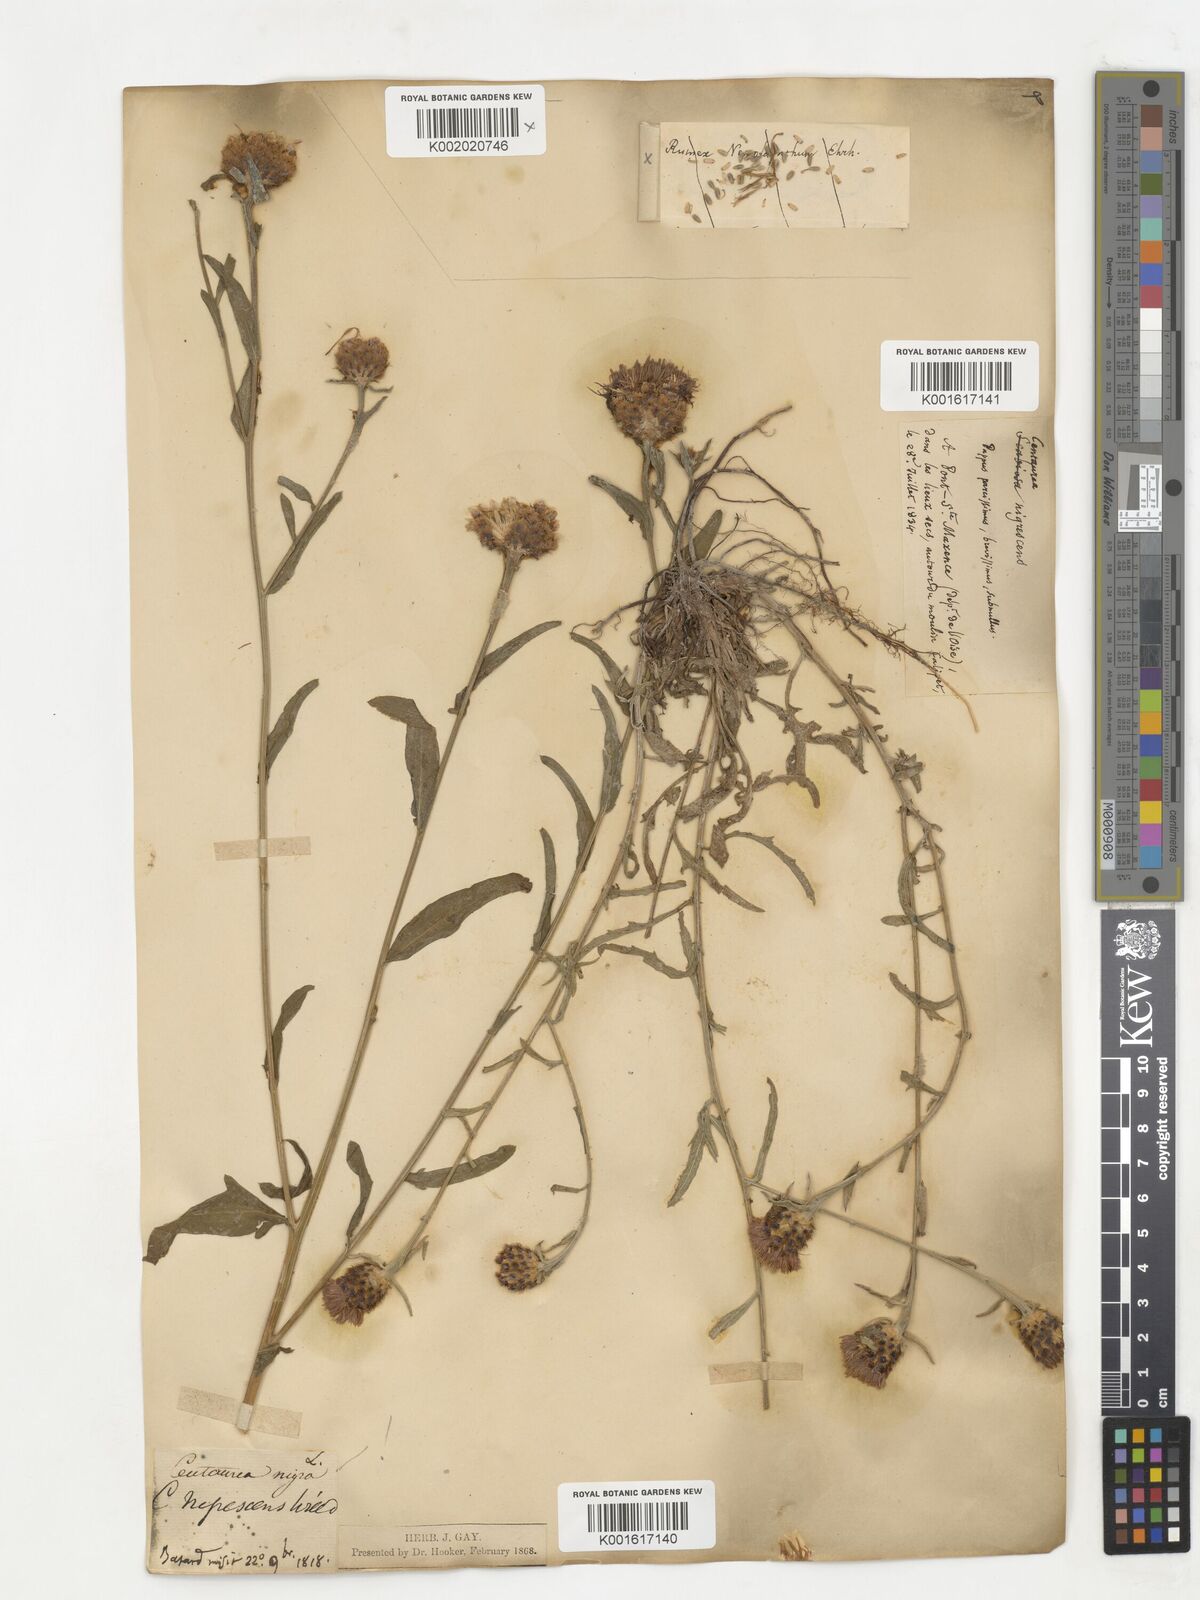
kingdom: Plantae
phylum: Tracheophyta
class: Magnoliopsida
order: Asterales
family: Asteraceae
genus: Centaurea
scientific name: Centaurea nigrescens
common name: Tyrol knapweed
